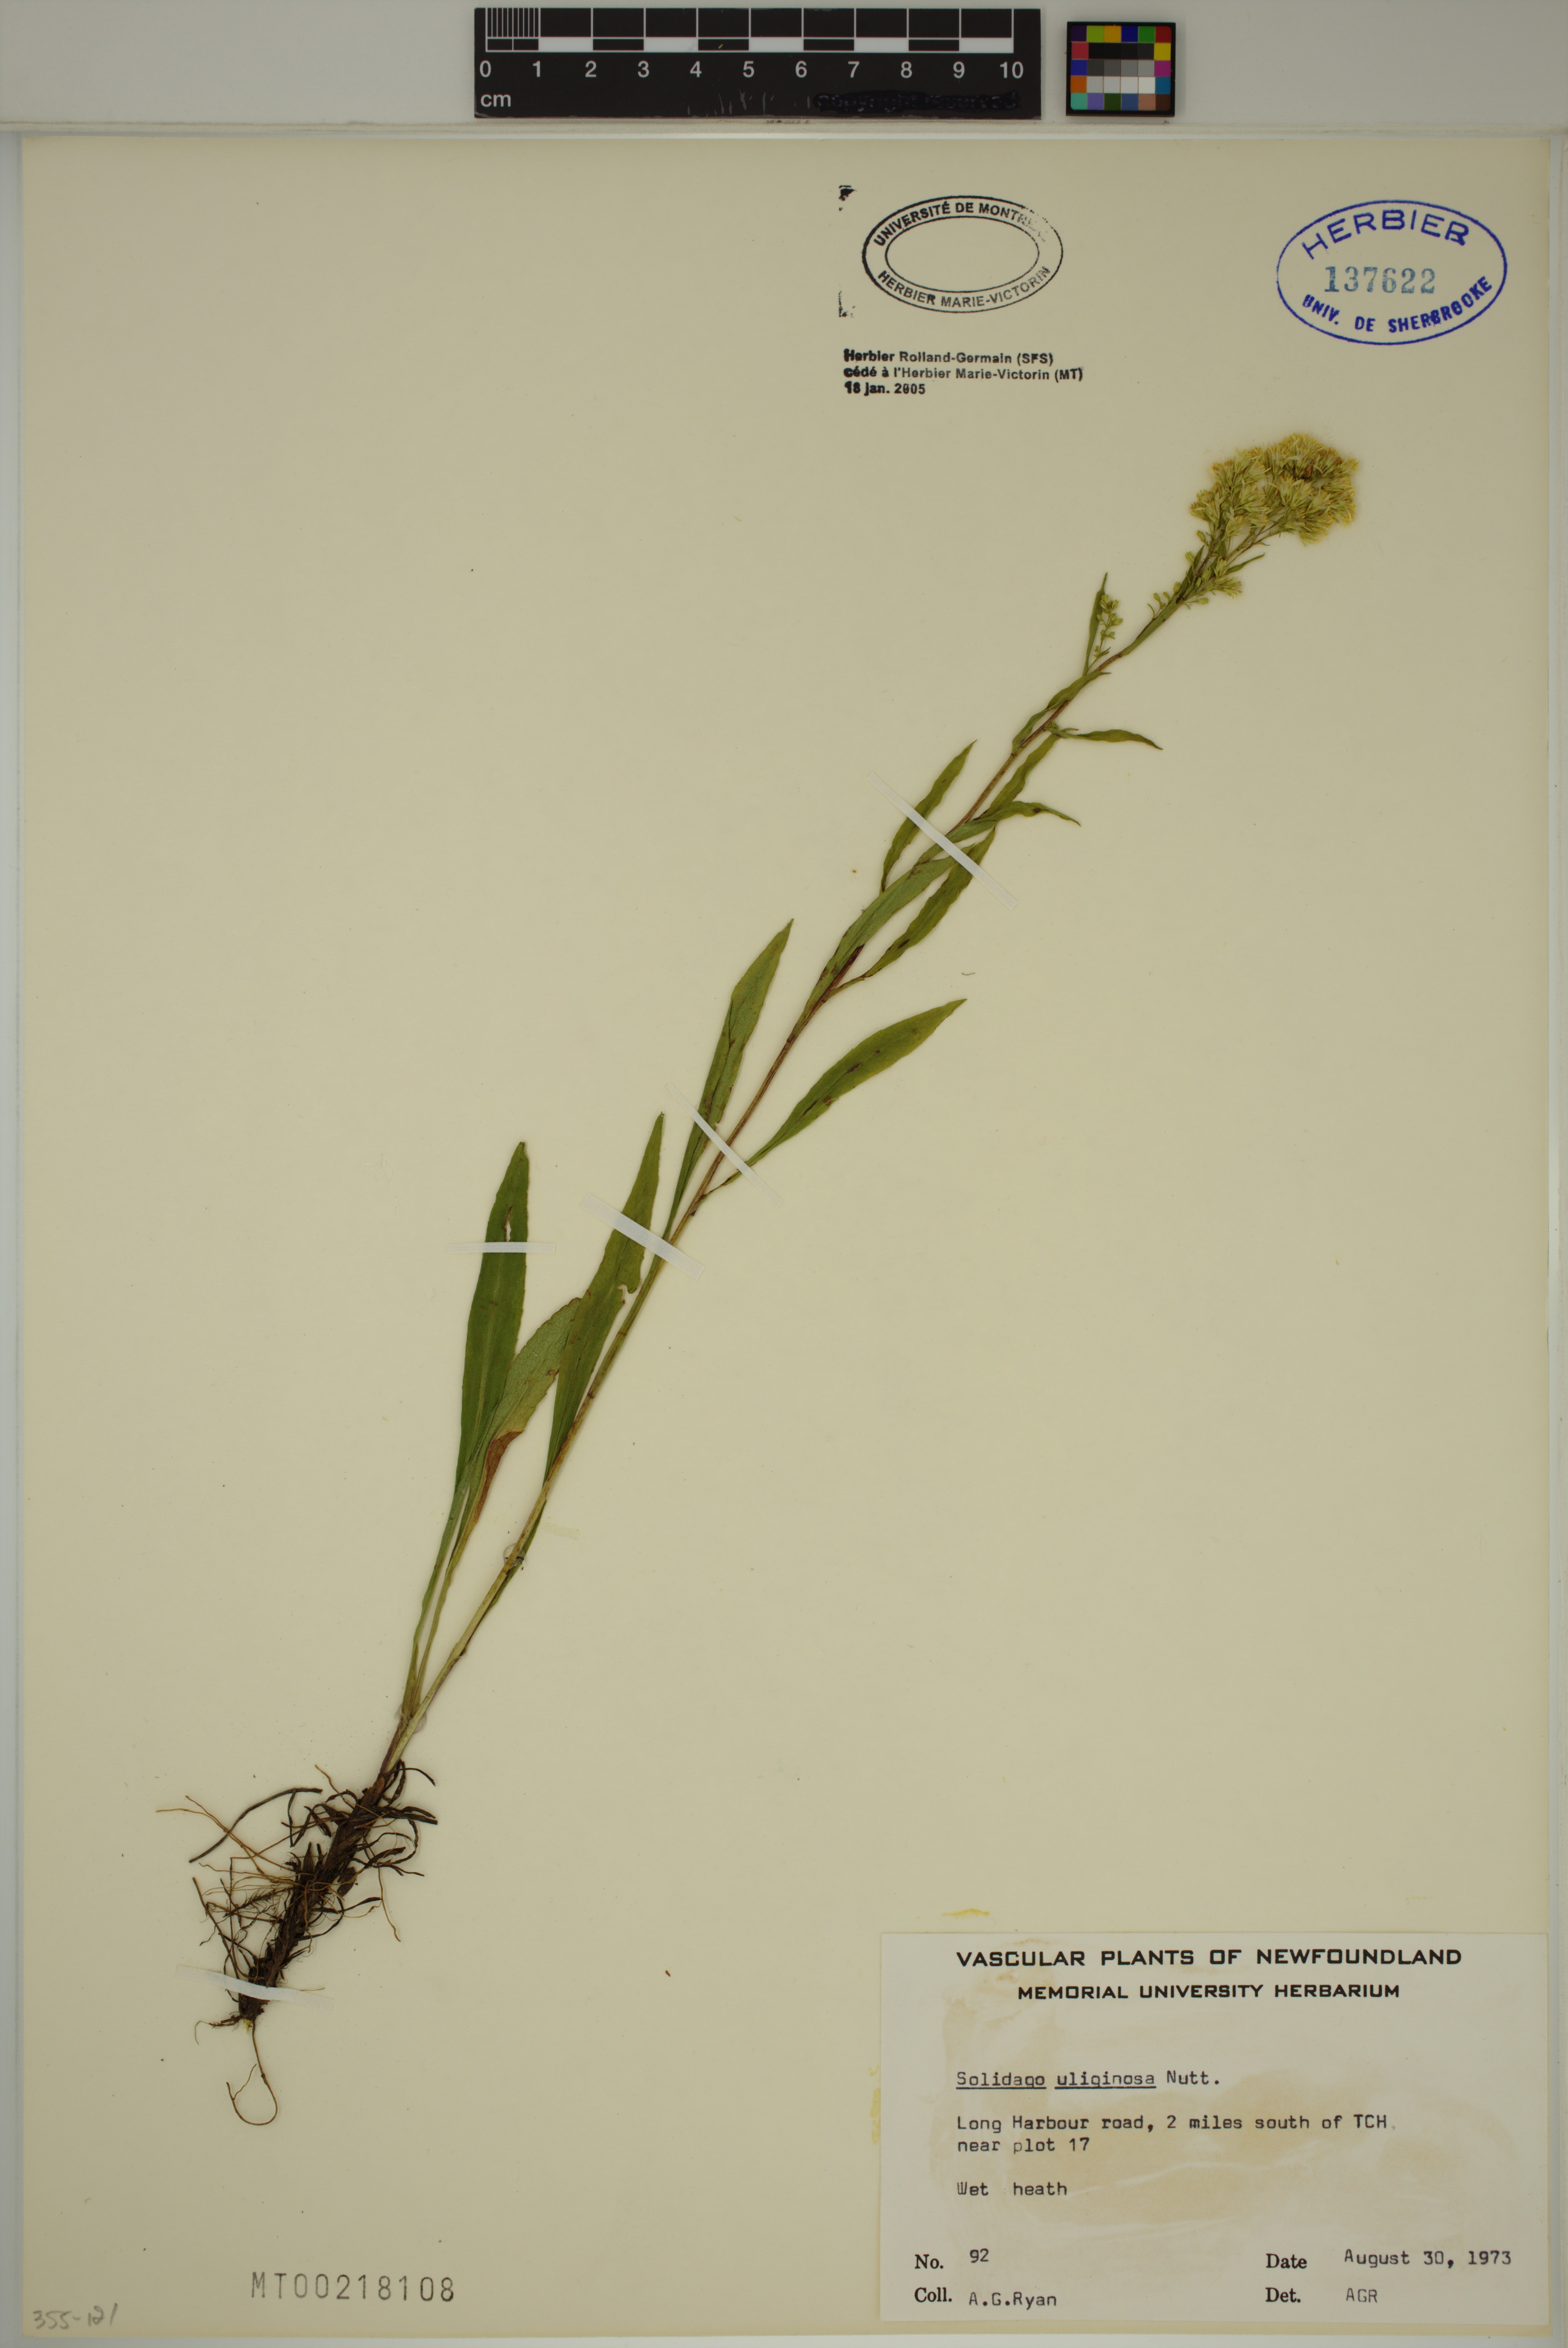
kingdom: Plantae
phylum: Tracheophyta
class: Magnoliopsida
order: Asterales
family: Asteraceae
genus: Solidago
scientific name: Solidago uliginosa
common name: Bog goldenrod
